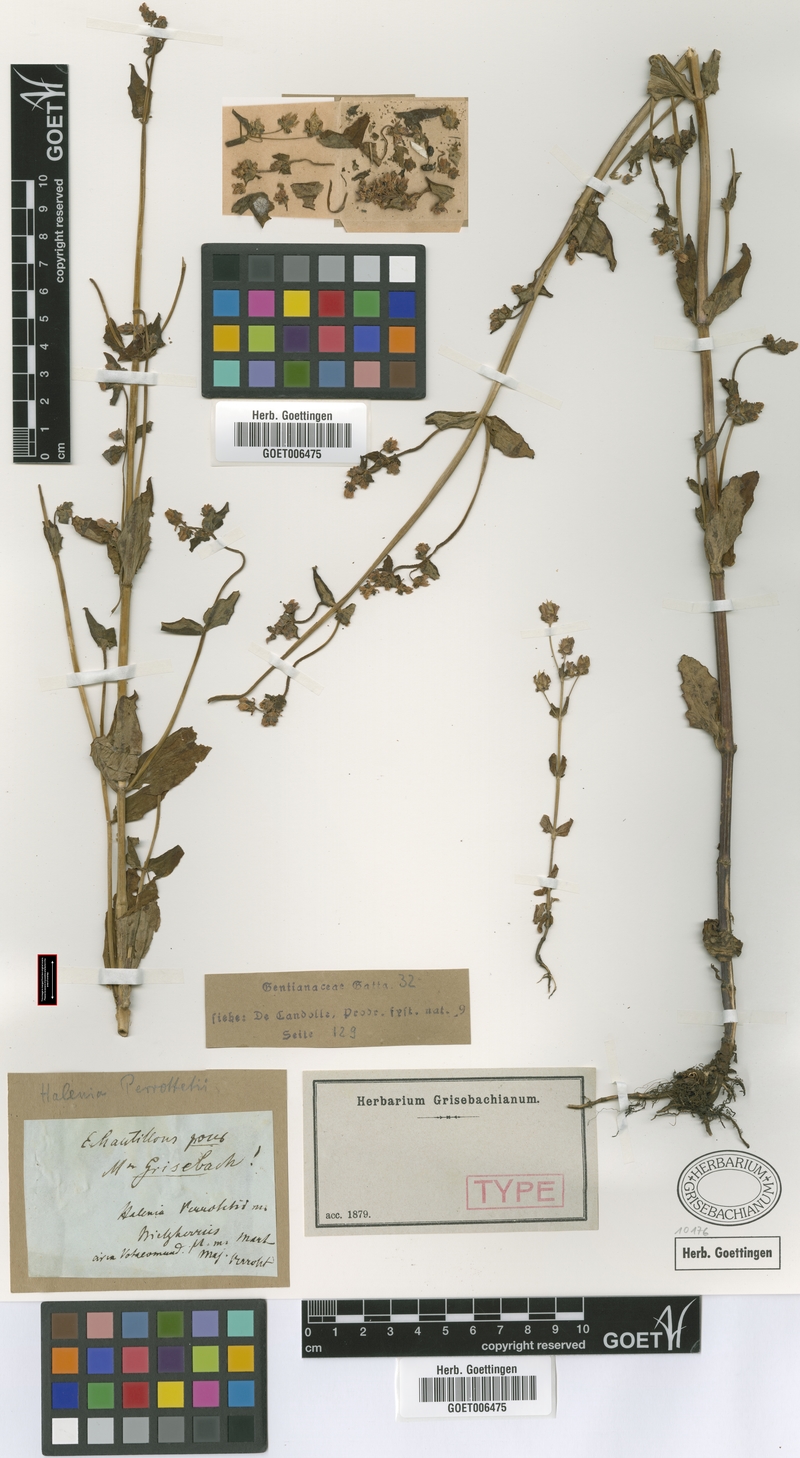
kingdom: Plantae
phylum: Tracheophyta
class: Magnoliopsida
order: Gentianales
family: Gentianaceae
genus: Halenia
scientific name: Halenia perrottetii
